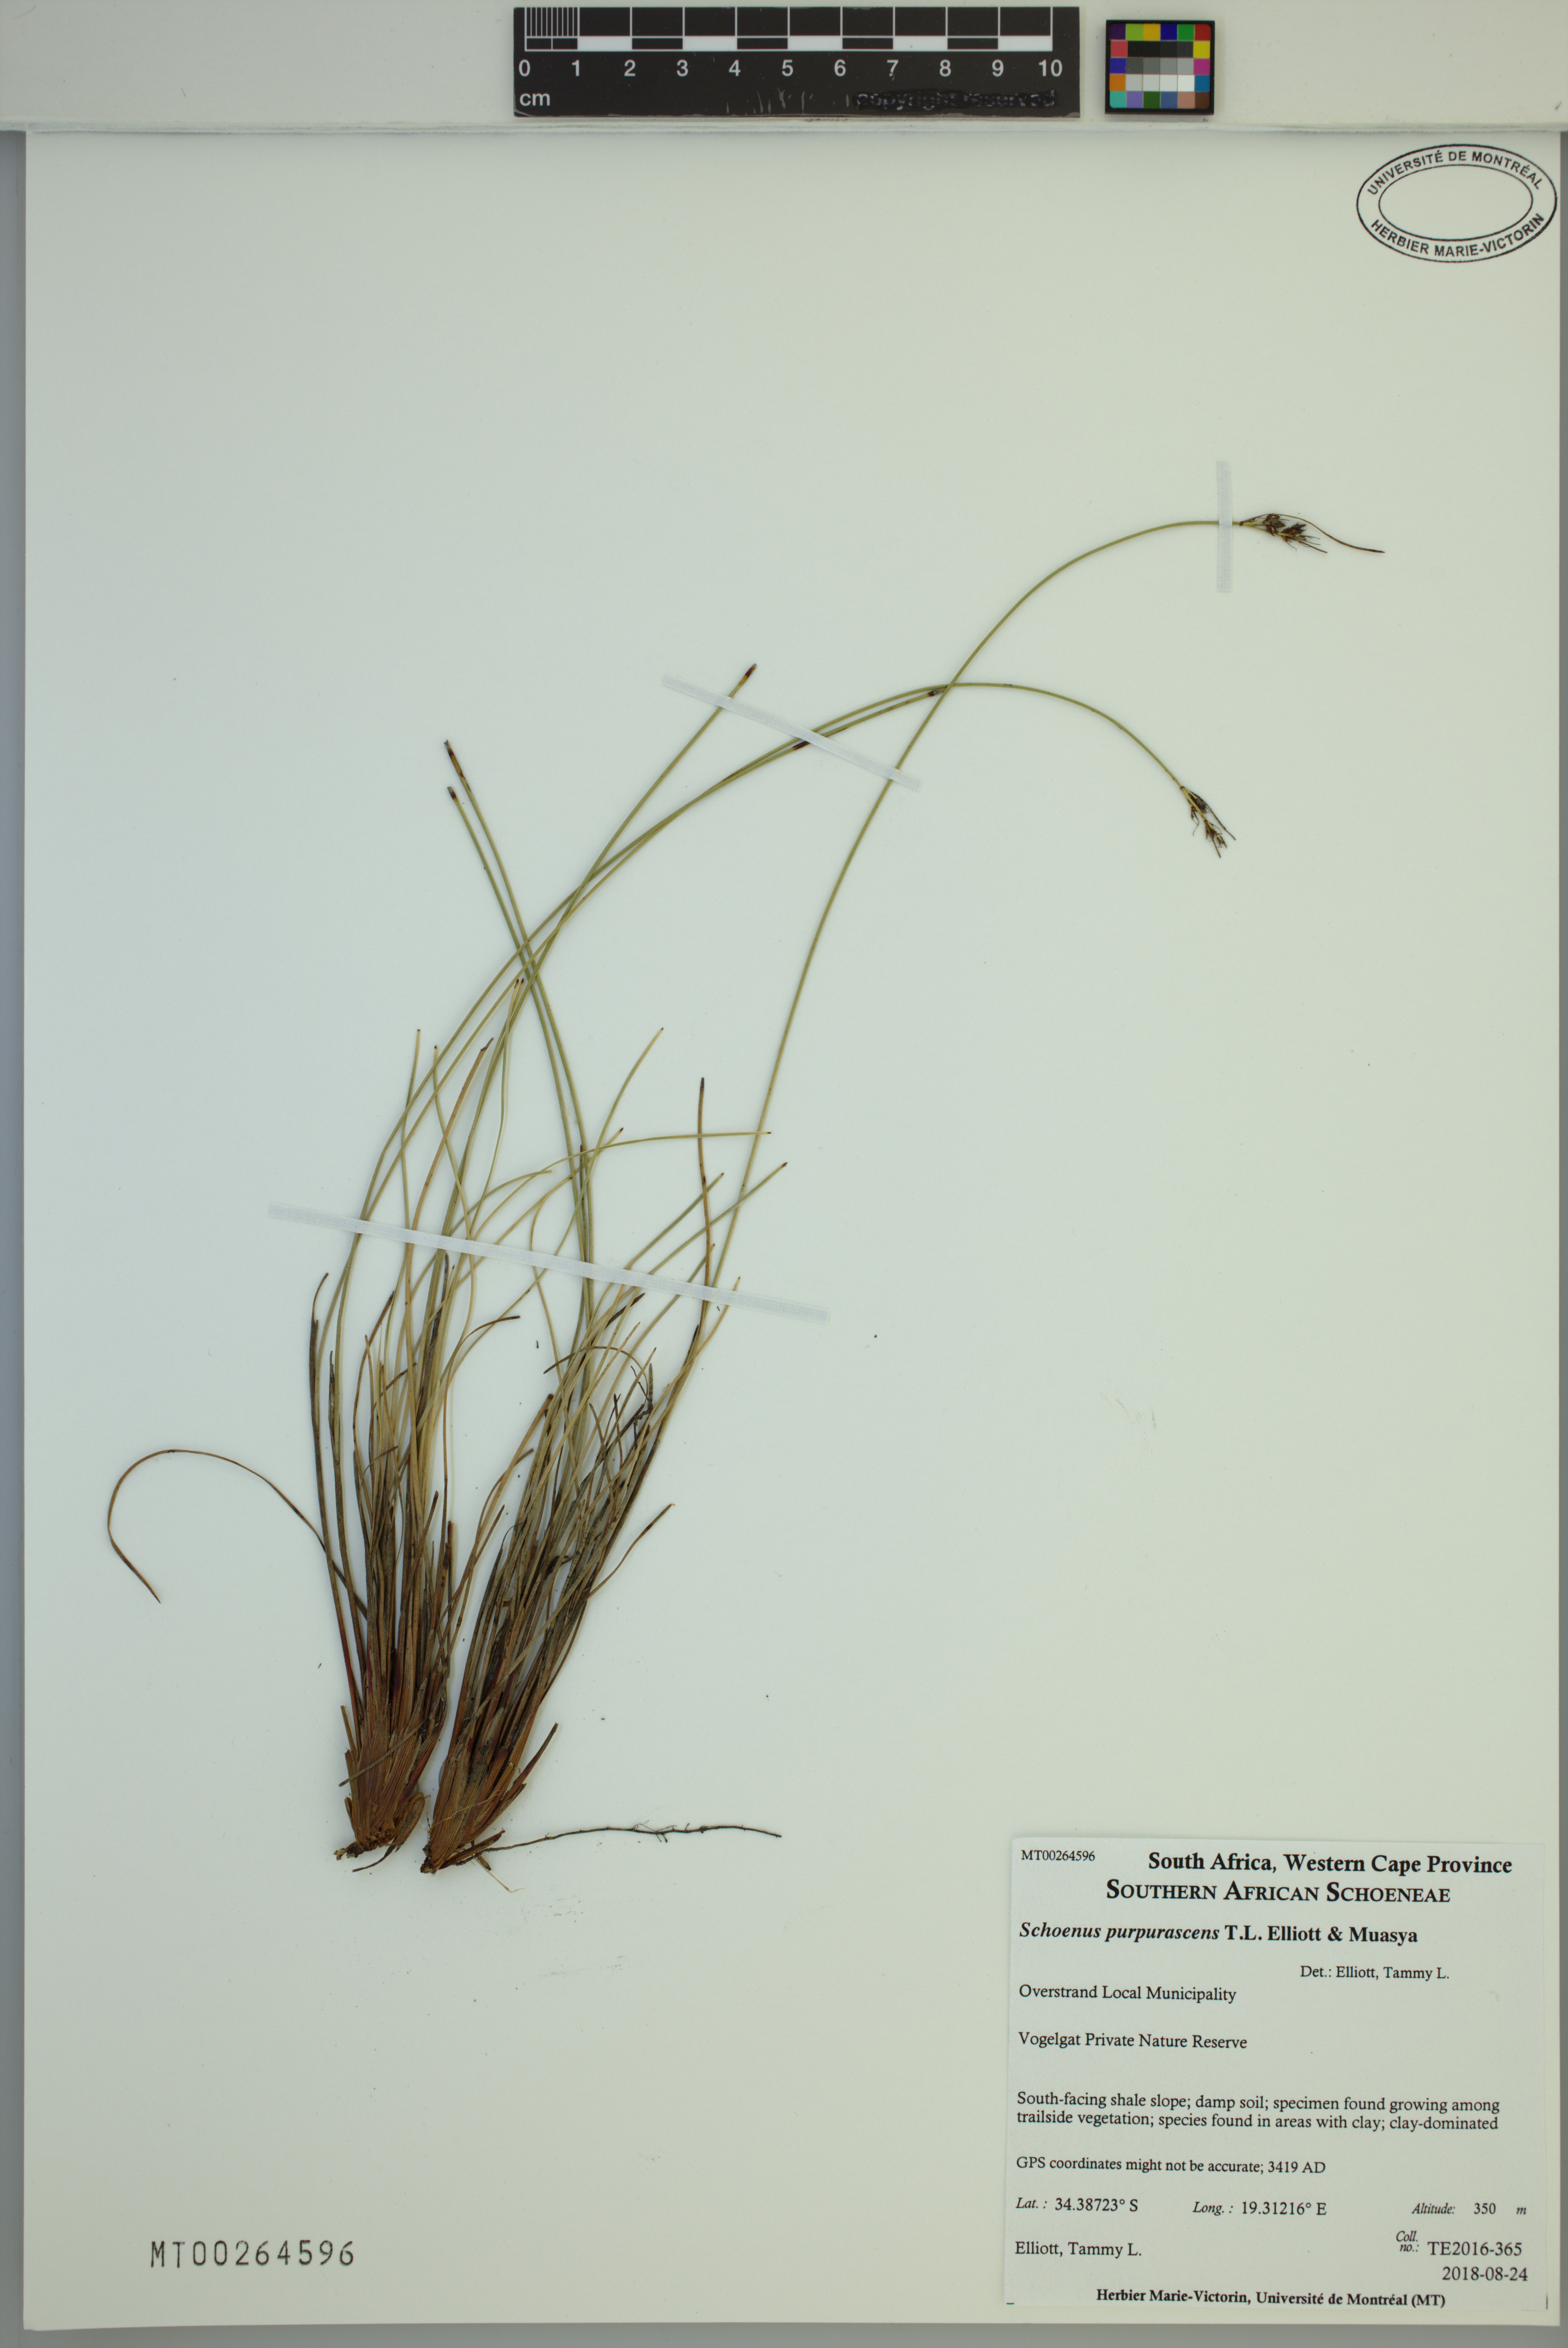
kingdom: Plantae
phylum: Tracheophyta
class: Liliopsida
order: Poales
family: Cyperaceae
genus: Schoenus
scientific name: Schoenus purpurascens
